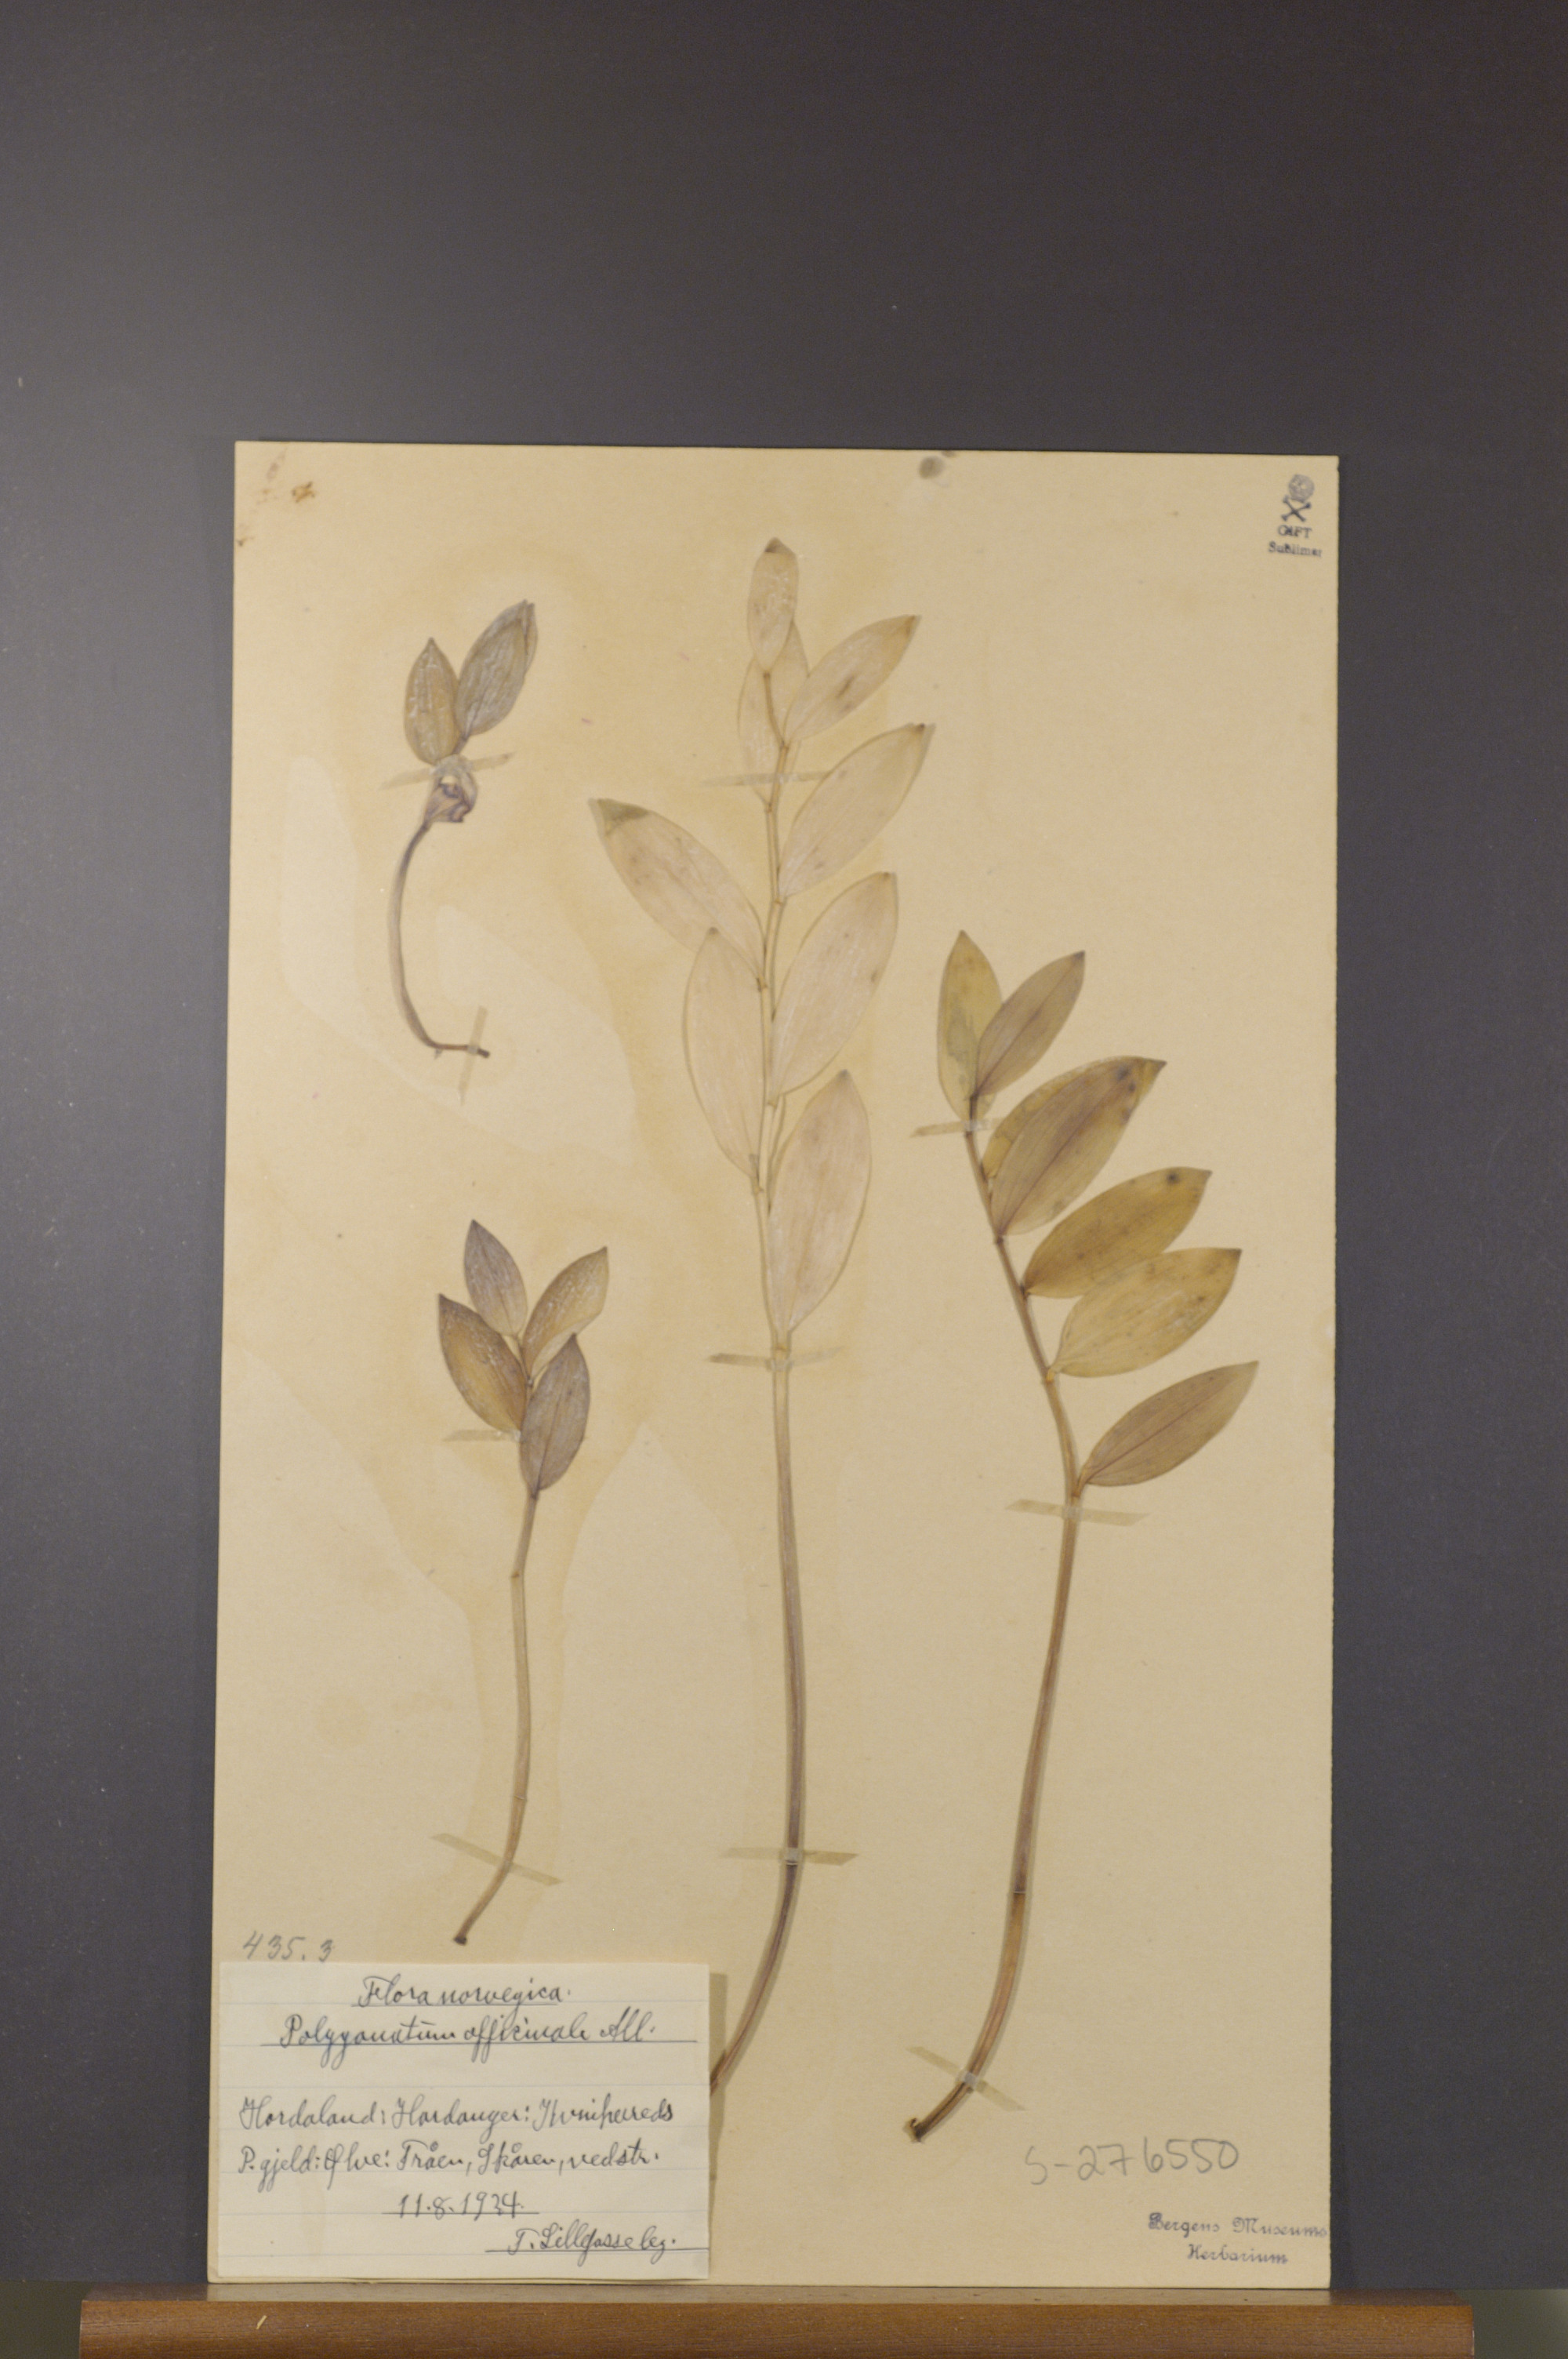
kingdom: Plantae
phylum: Tracheophyta
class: Liliopsida
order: Asparagales
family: Asparagaceae
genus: Polygonatum
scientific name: Polygonatum odoratum
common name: Angular solomon's-seal
